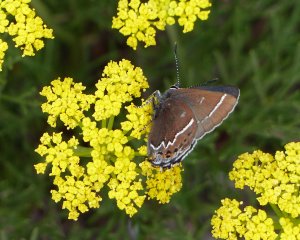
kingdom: Animalia
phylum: Arthropoda
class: Insecta
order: Lepidoptera
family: Lycaenidae
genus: Mitoura
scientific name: Mitoura spinetorum
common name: Thicket Hairstreak
